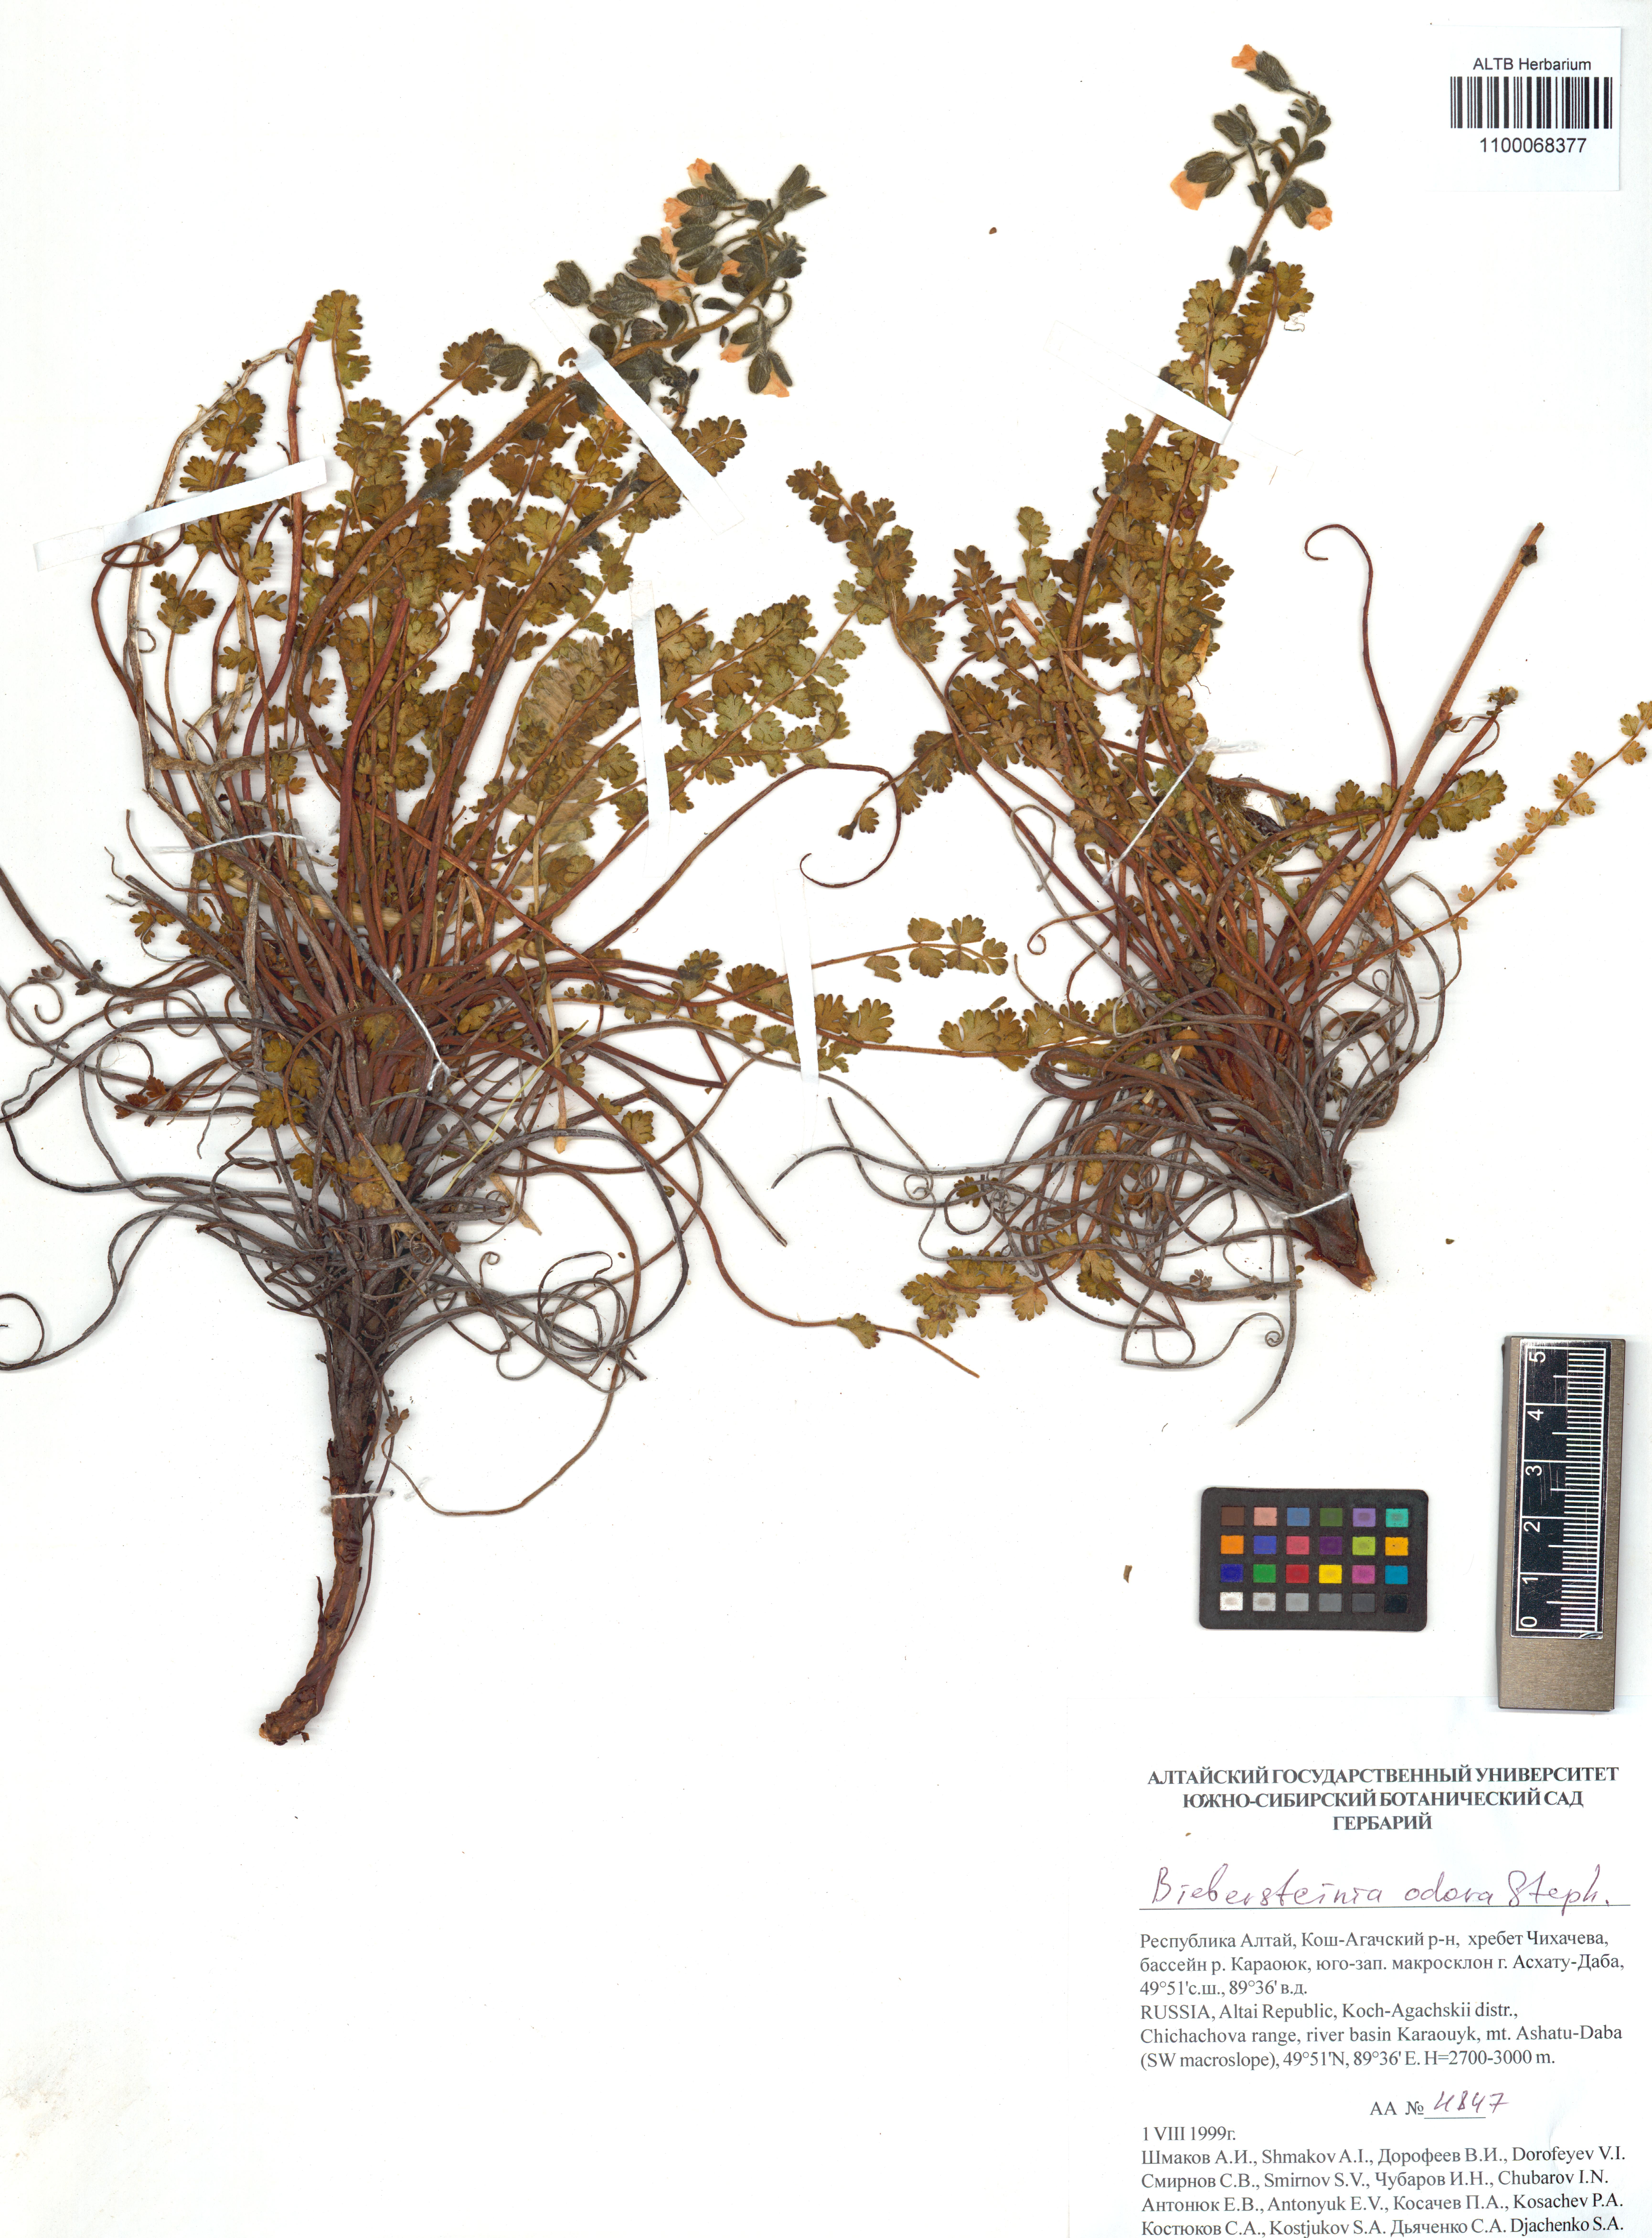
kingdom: Plantae
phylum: Tracheophyta
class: Magnoliopsida
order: Sapindales
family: Biebersteiniaceae
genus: Biebersteinia
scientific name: Biebersteinia odora
